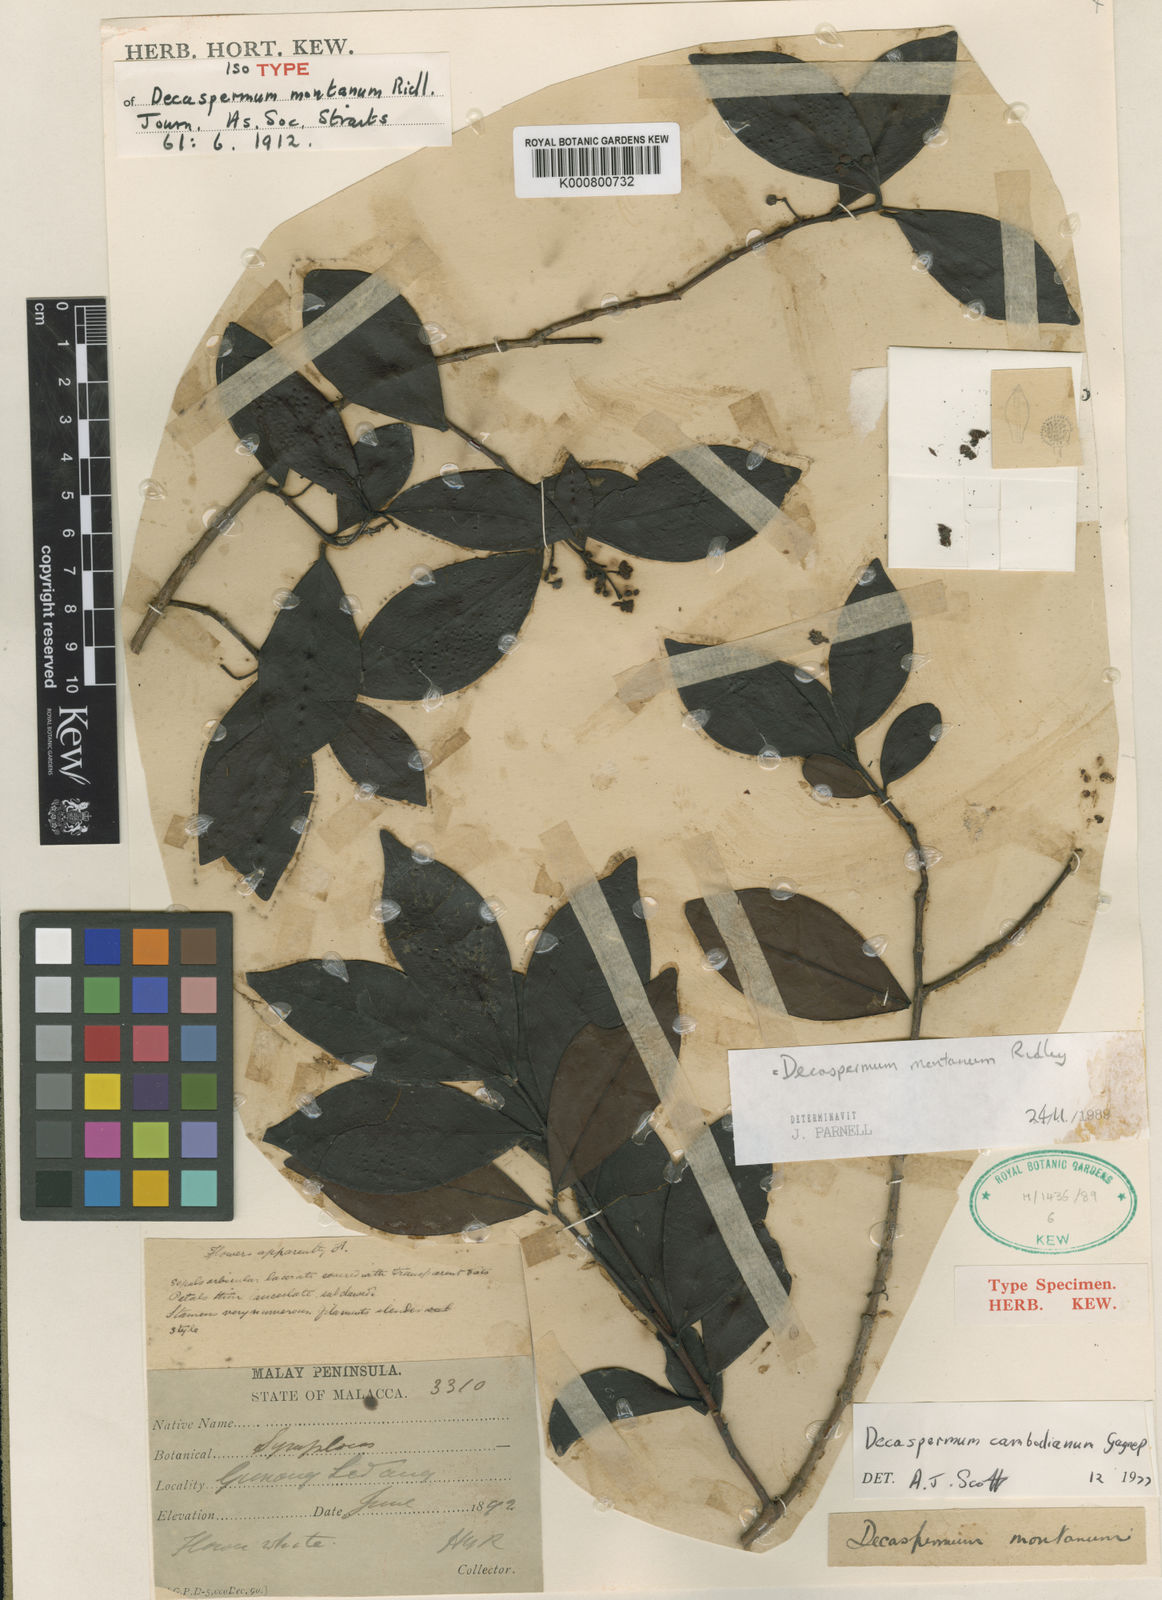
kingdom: Plantae
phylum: Tracheophyta
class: Magnoliopsida
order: Myrtales
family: Myrtaceae
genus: Decaspermum
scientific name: Decaspermum montanum
